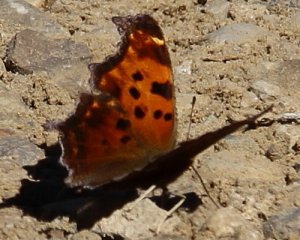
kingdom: Animalia
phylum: Arthropoda
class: Insecta
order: Lepidoptera
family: Nymphalidae
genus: Polygonia
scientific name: Polygonia comma
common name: Eastern Comma
